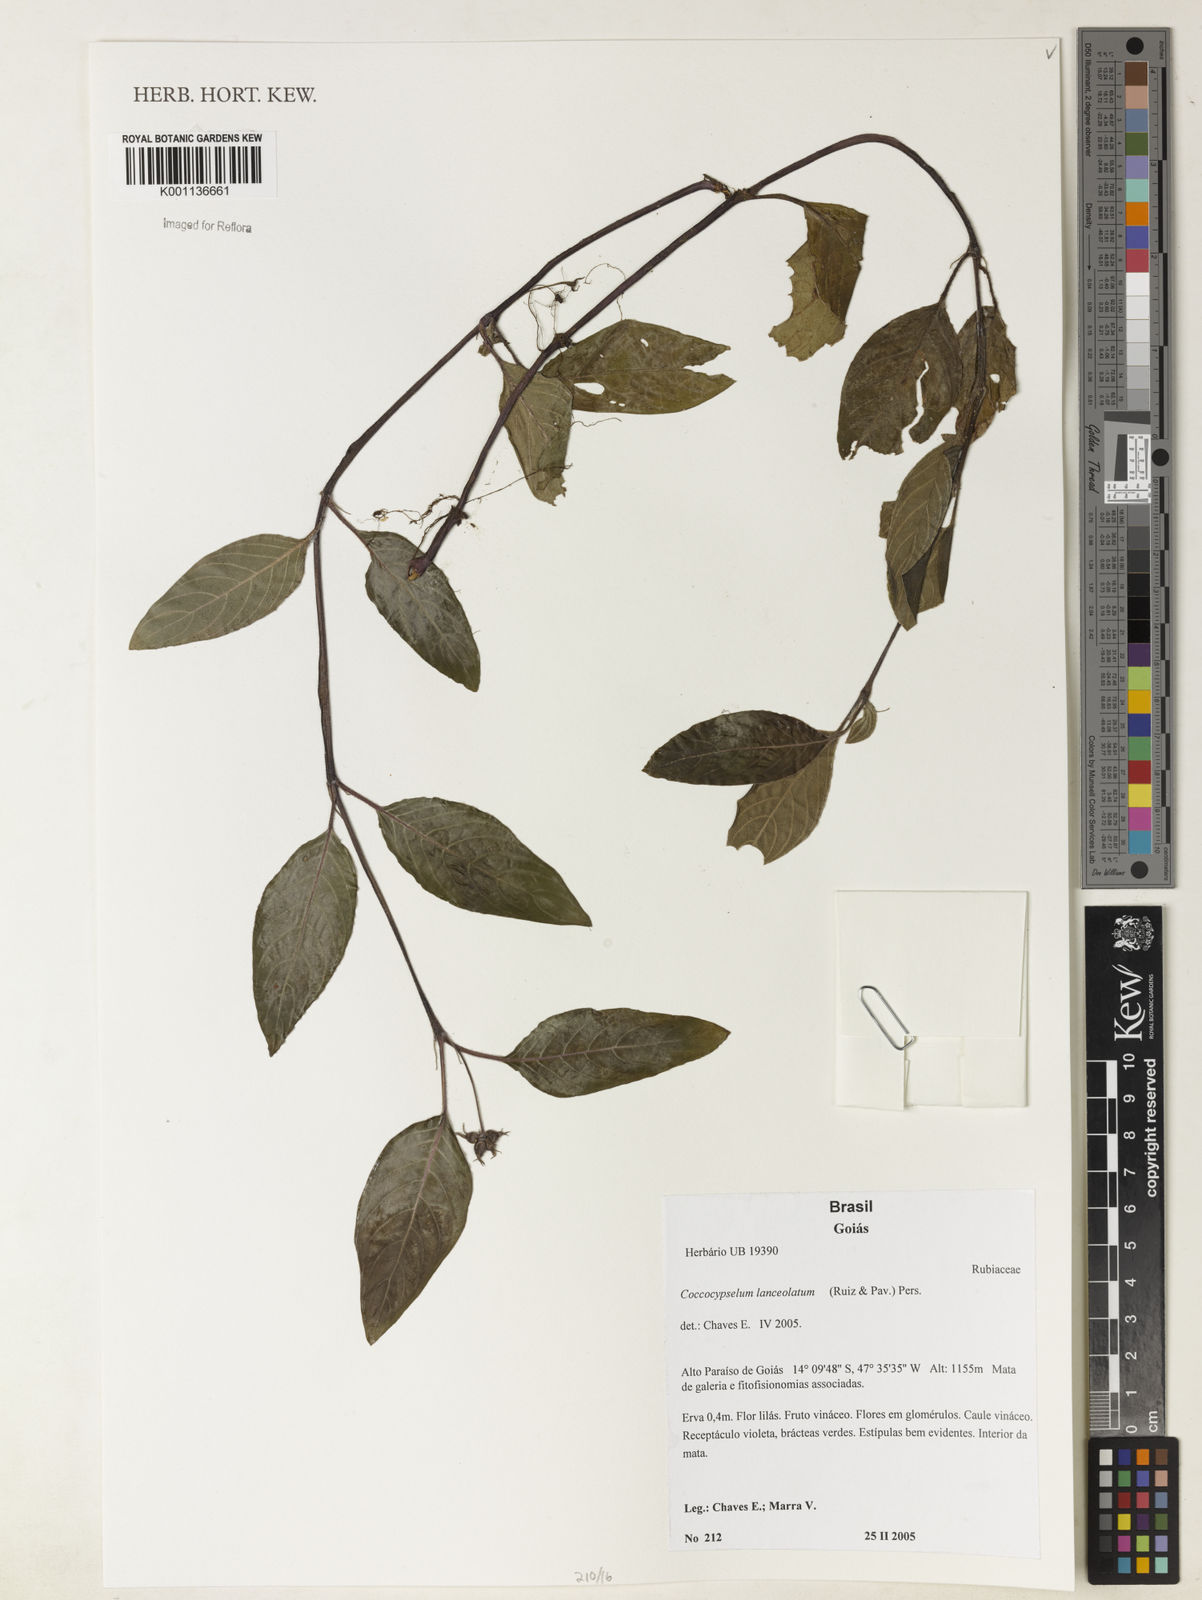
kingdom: Plantae
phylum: Tracheophyta
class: Magnoliopsida
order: Gentianales
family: Rubiaceae
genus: Coccocypselum
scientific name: Coccocypselum lanceolatum
